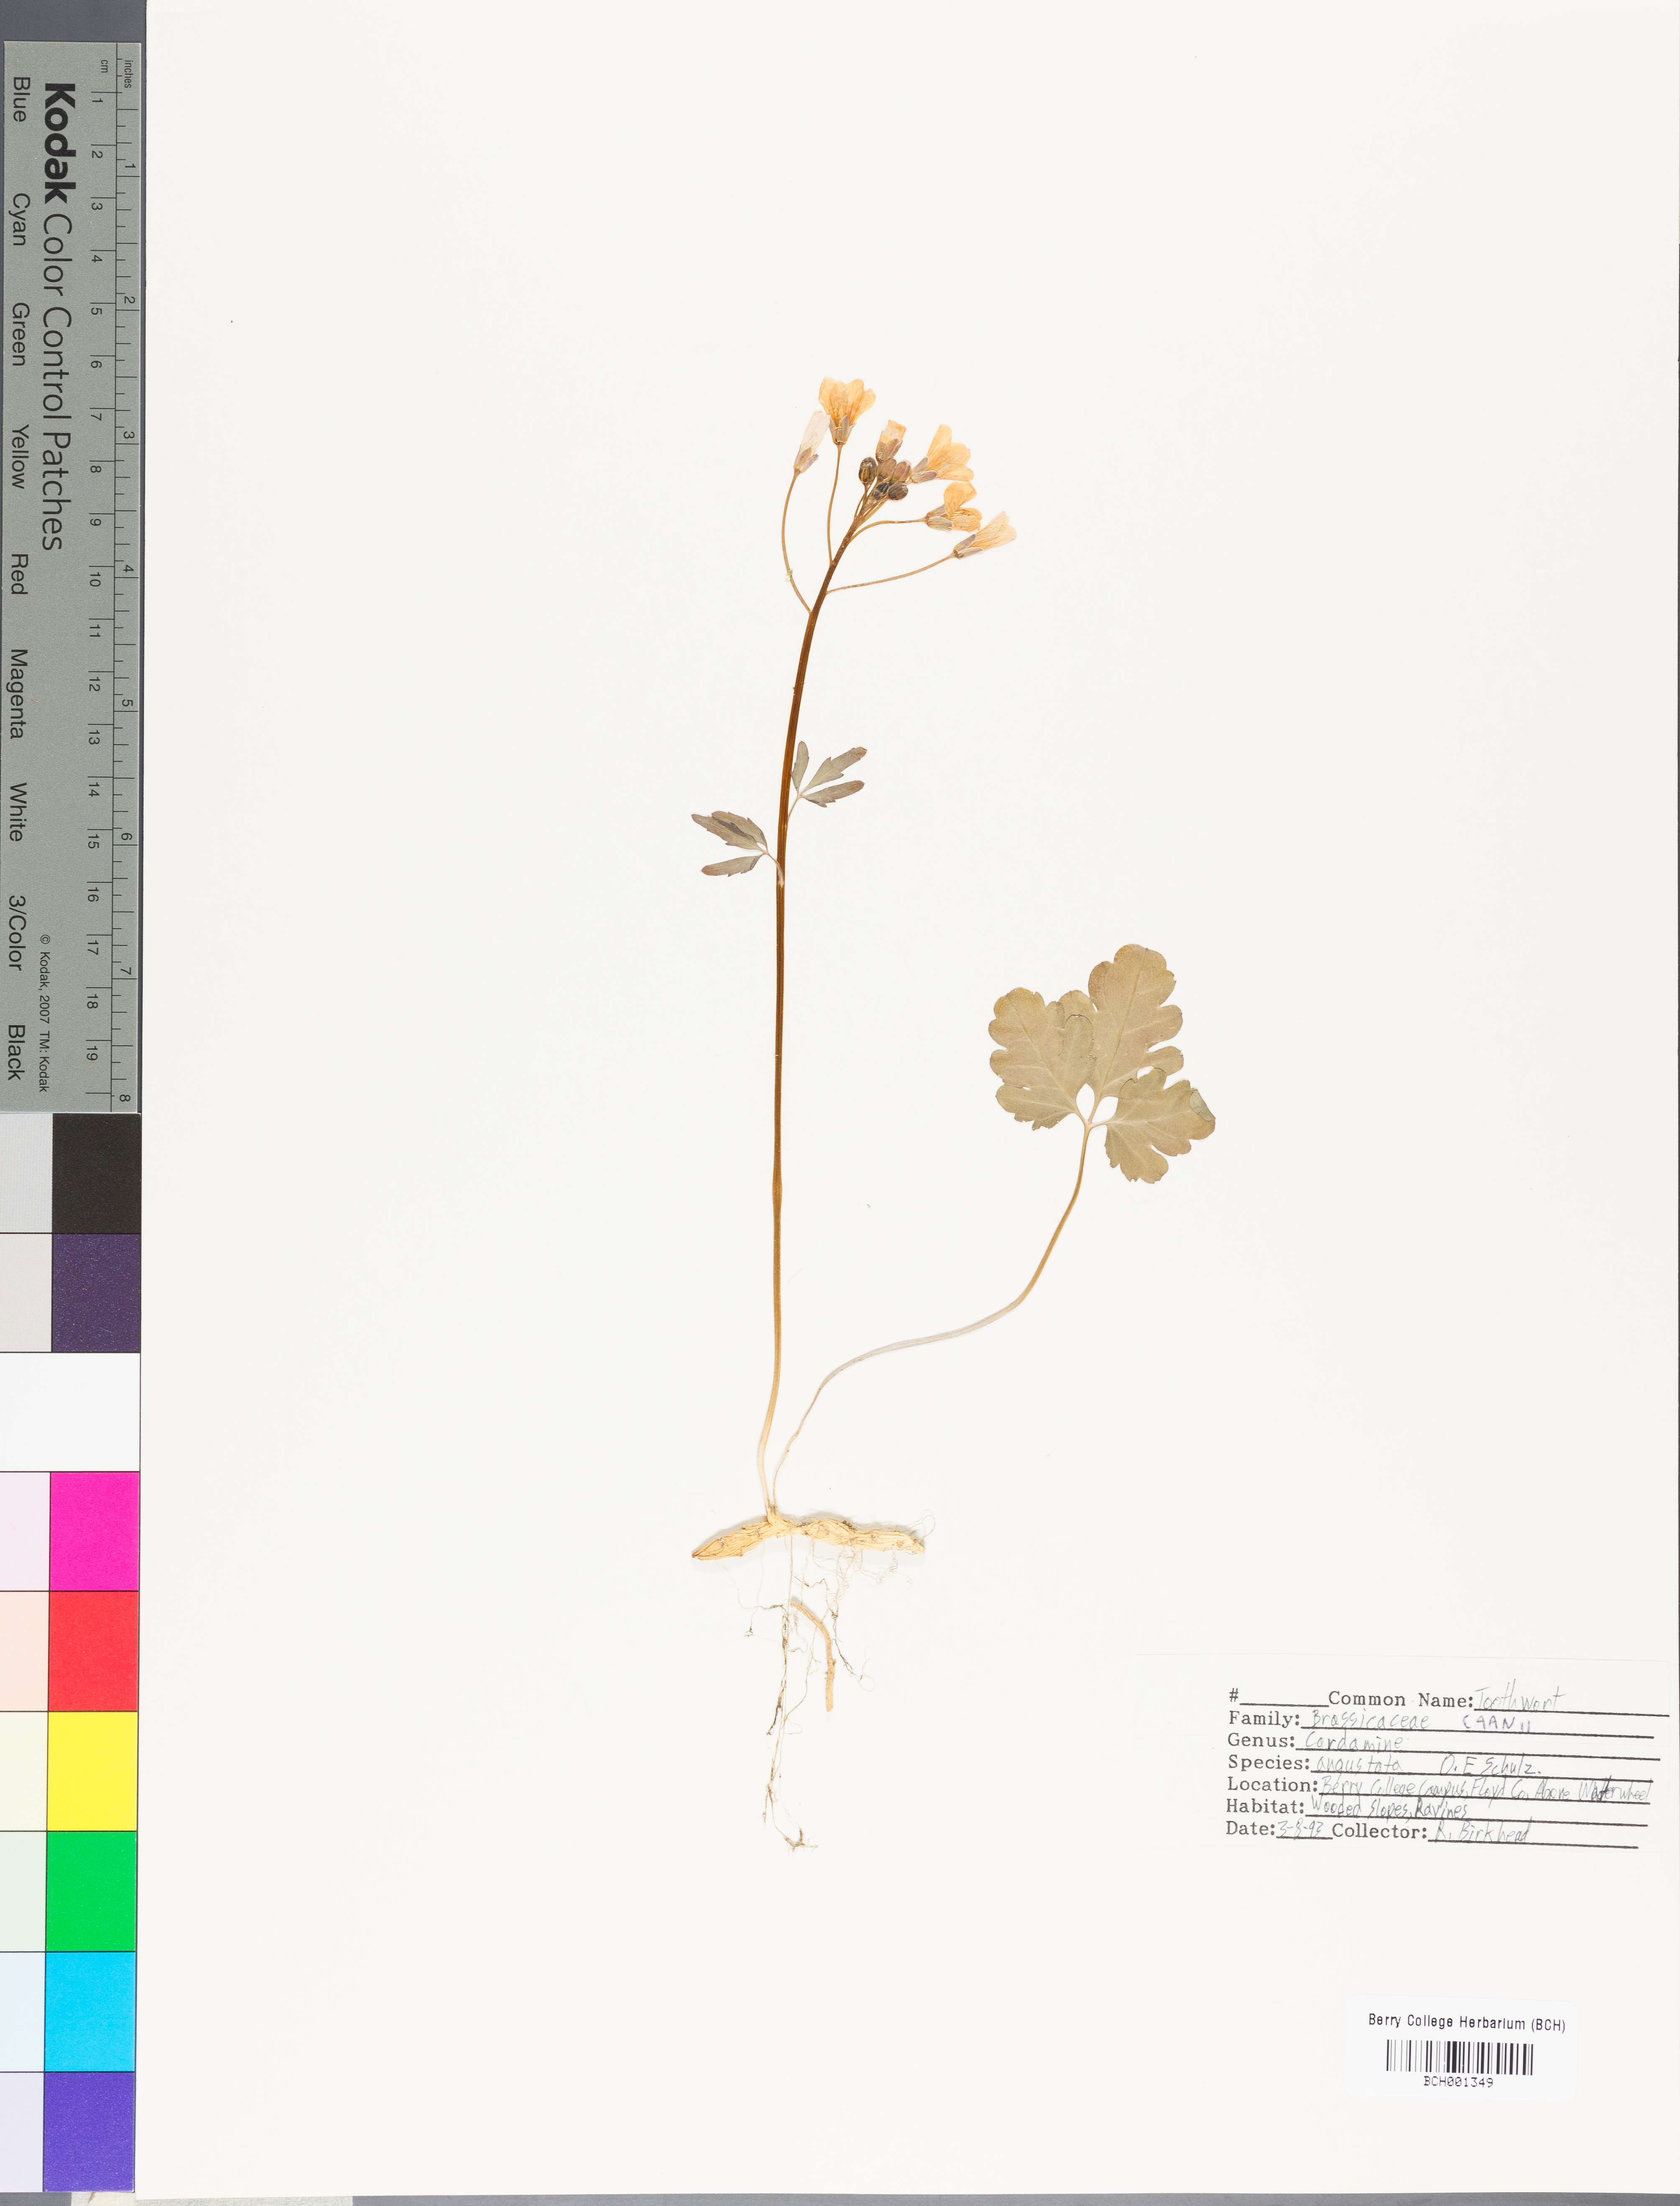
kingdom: Plantae
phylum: Tracheophyta
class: Magnoliopsida
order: Brassicales
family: Brassicaceae
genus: Cardamine
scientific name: Cardamine angustata
